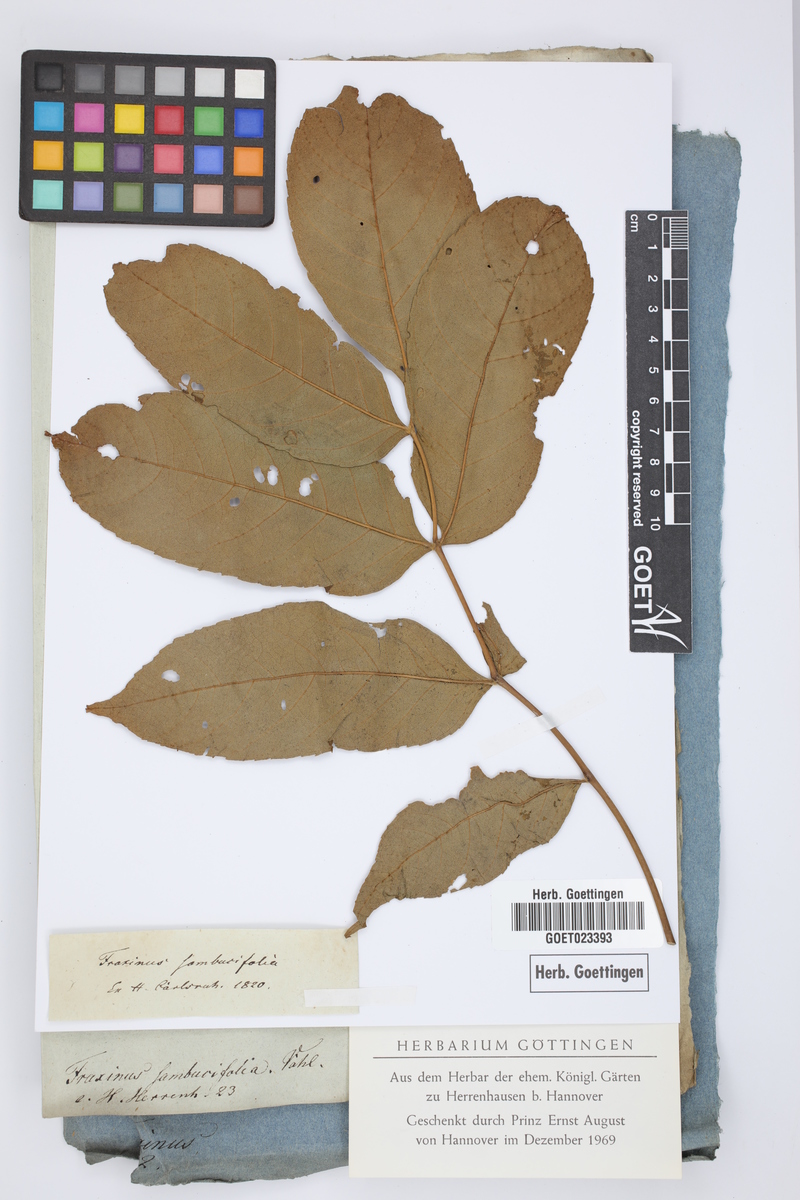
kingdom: Plantae
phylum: Tracheophyta
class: Magnoliopsida
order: Lamiales
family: Oleaceae
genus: Fraxinus
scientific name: Fraxinus nigra
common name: Black ash
